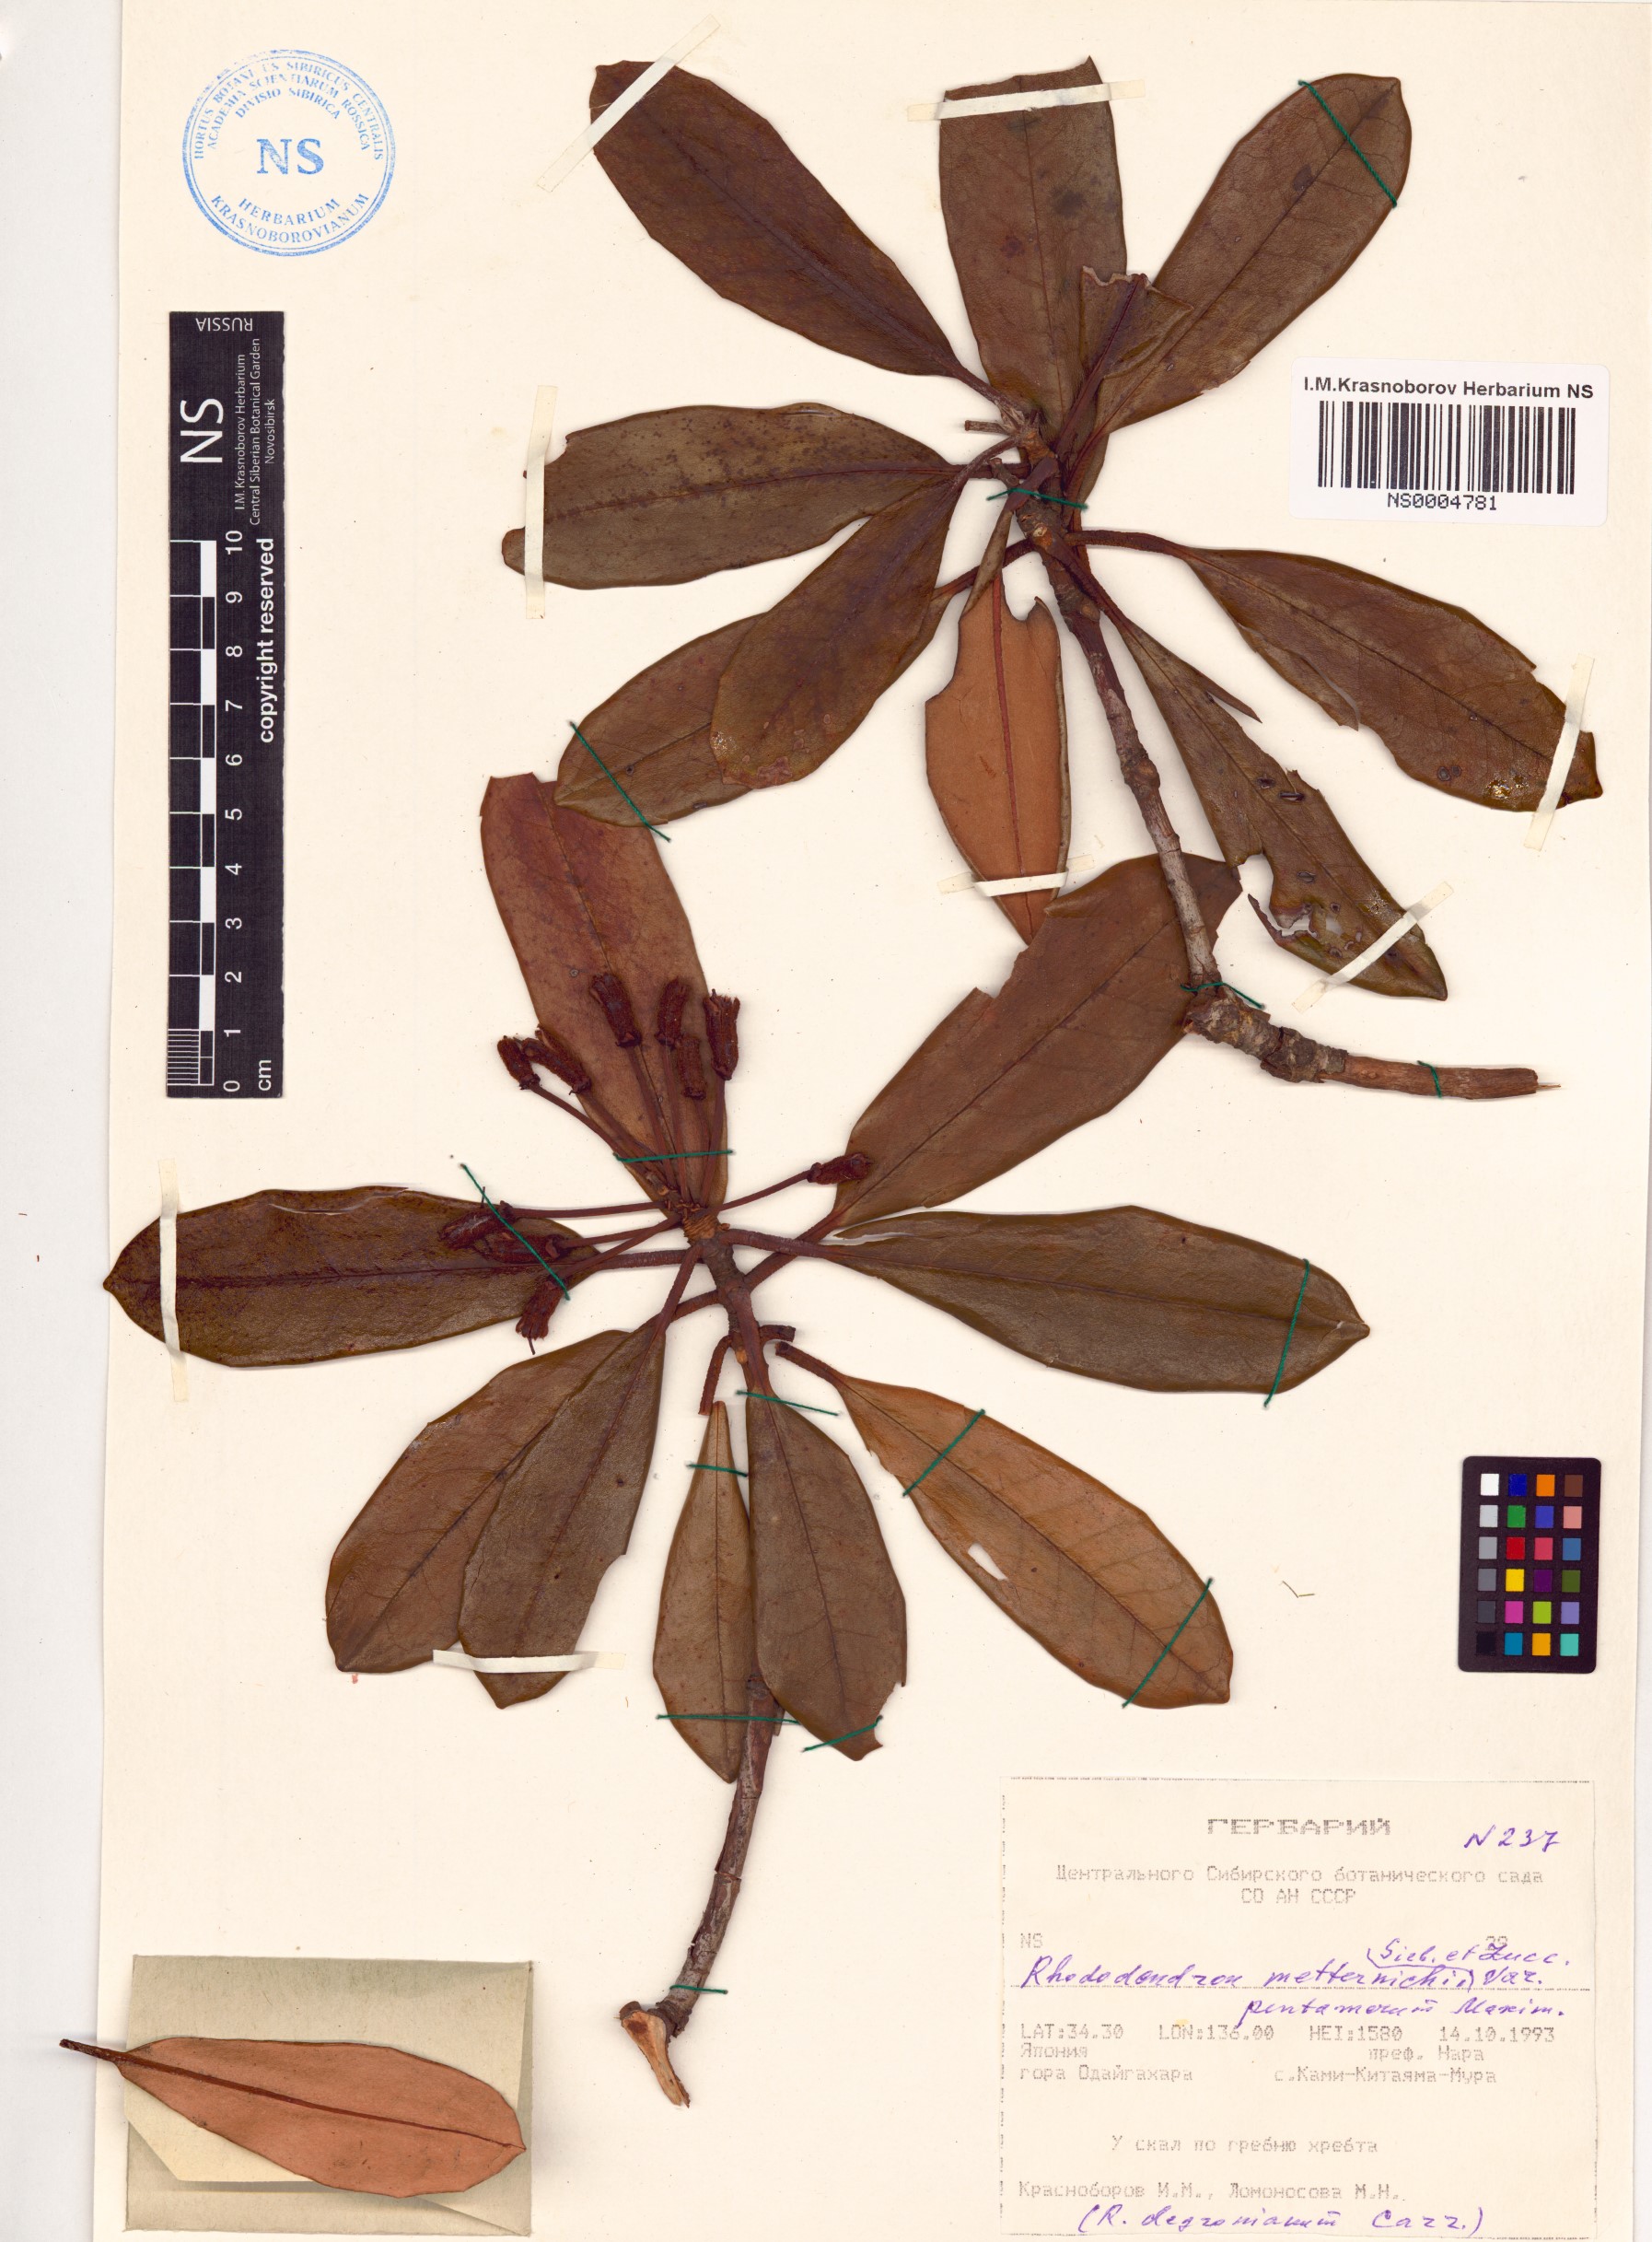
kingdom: Plantae
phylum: Tracheophyta
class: Magnoliopsida
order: Ericales
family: Ericaceae
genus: Rhododendron
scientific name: Rhododendron degronianum
